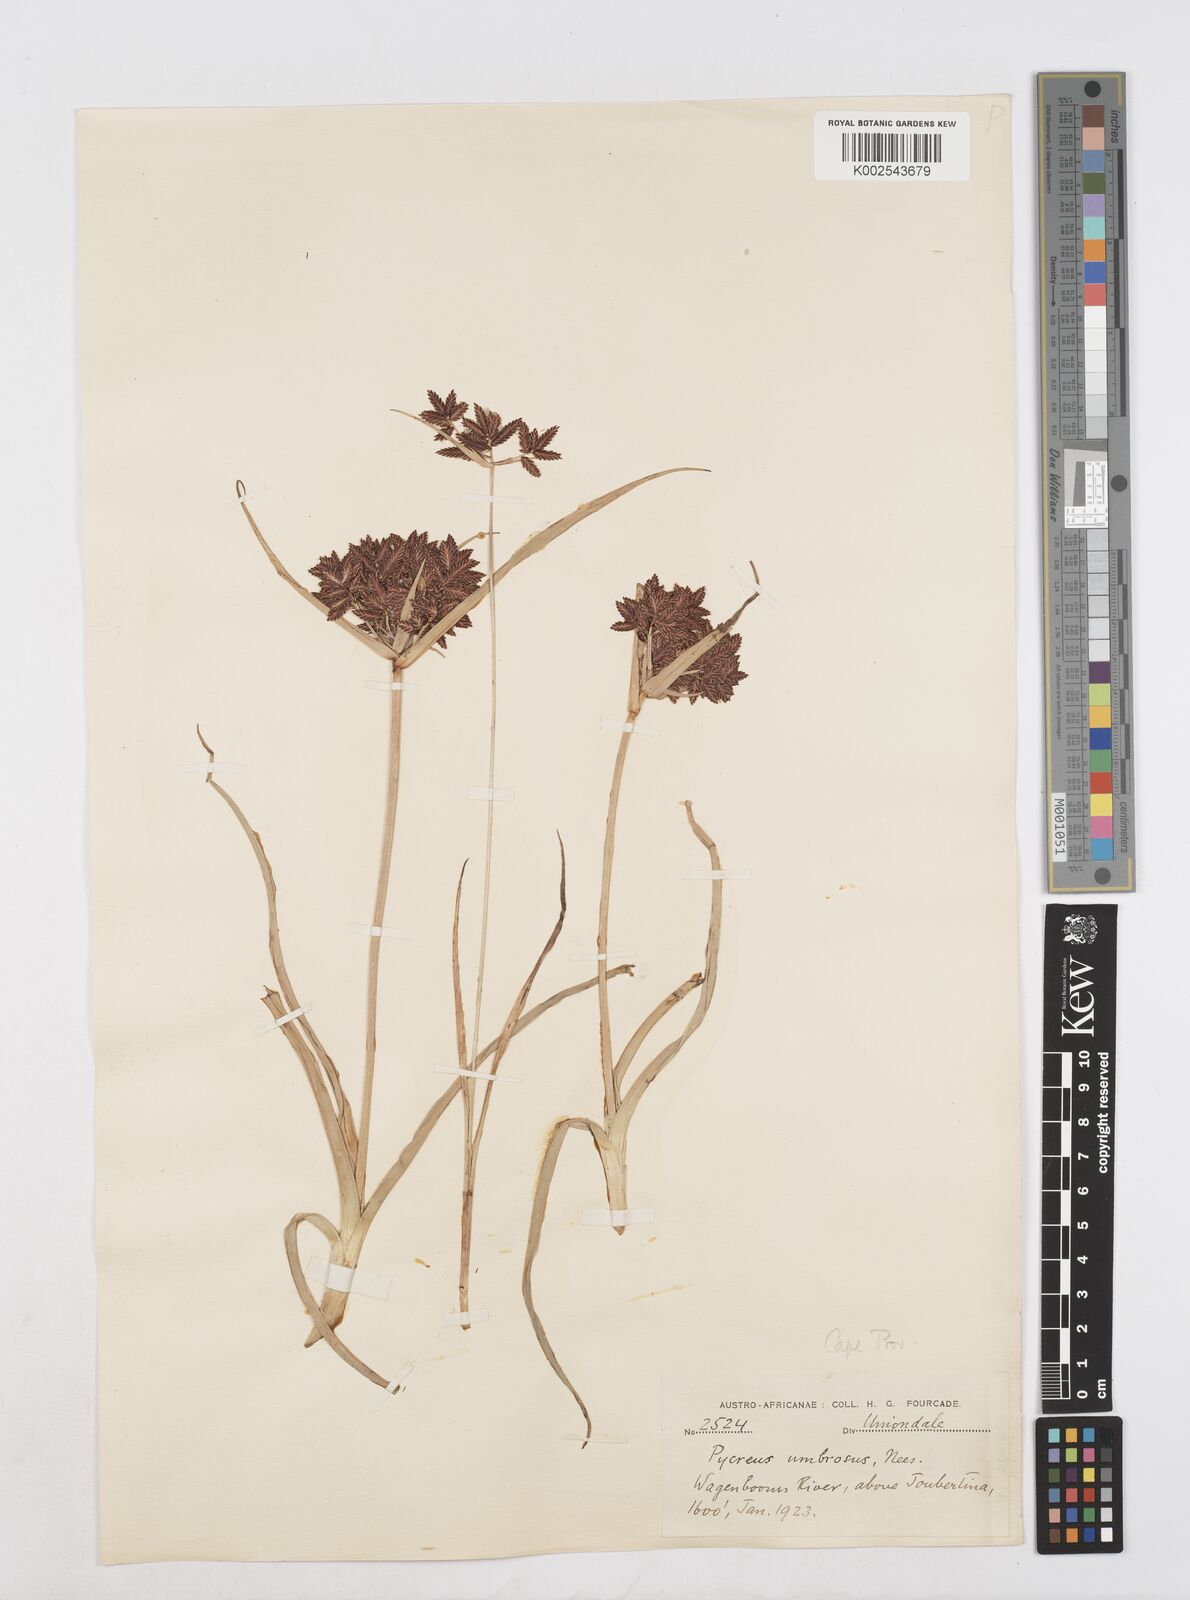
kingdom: Plantae
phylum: Tracheophyta
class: Liliopsida
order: Poales
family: Cyperaceae
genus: Cyperus
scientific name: Cyperus nitidus
